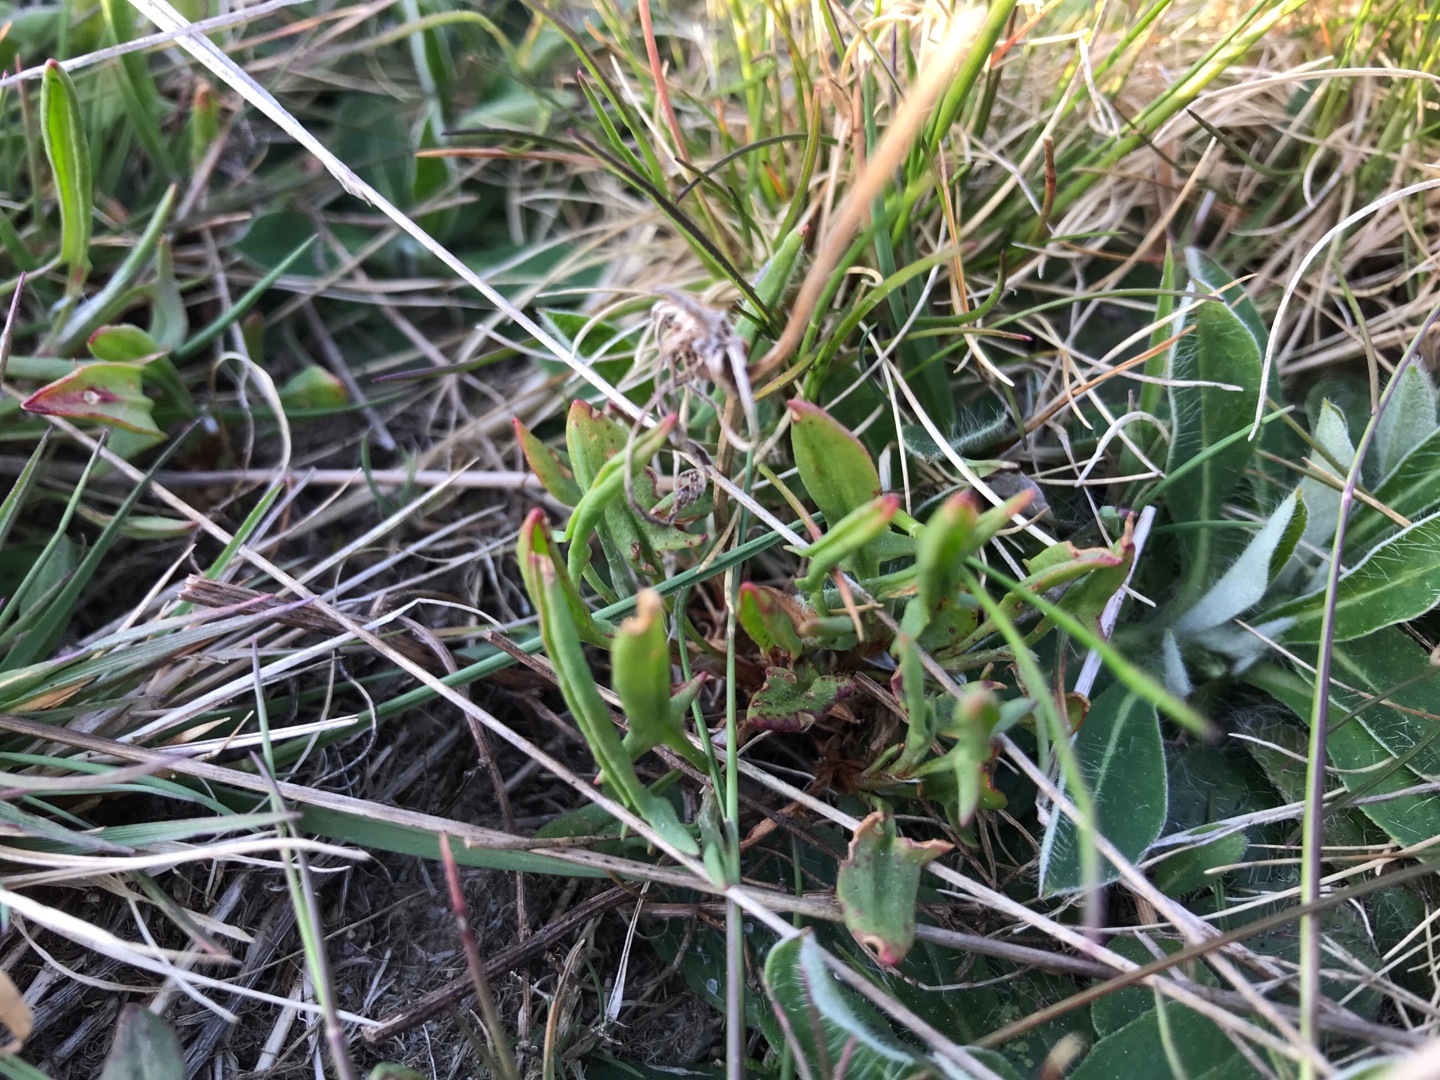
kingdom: Plantae
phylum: Tracheophyta
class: Magnoliopsida
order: Caryophyllales
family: Polygonaceae
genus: Rumex
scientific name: Rumex acetosella
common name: Rødknæ
